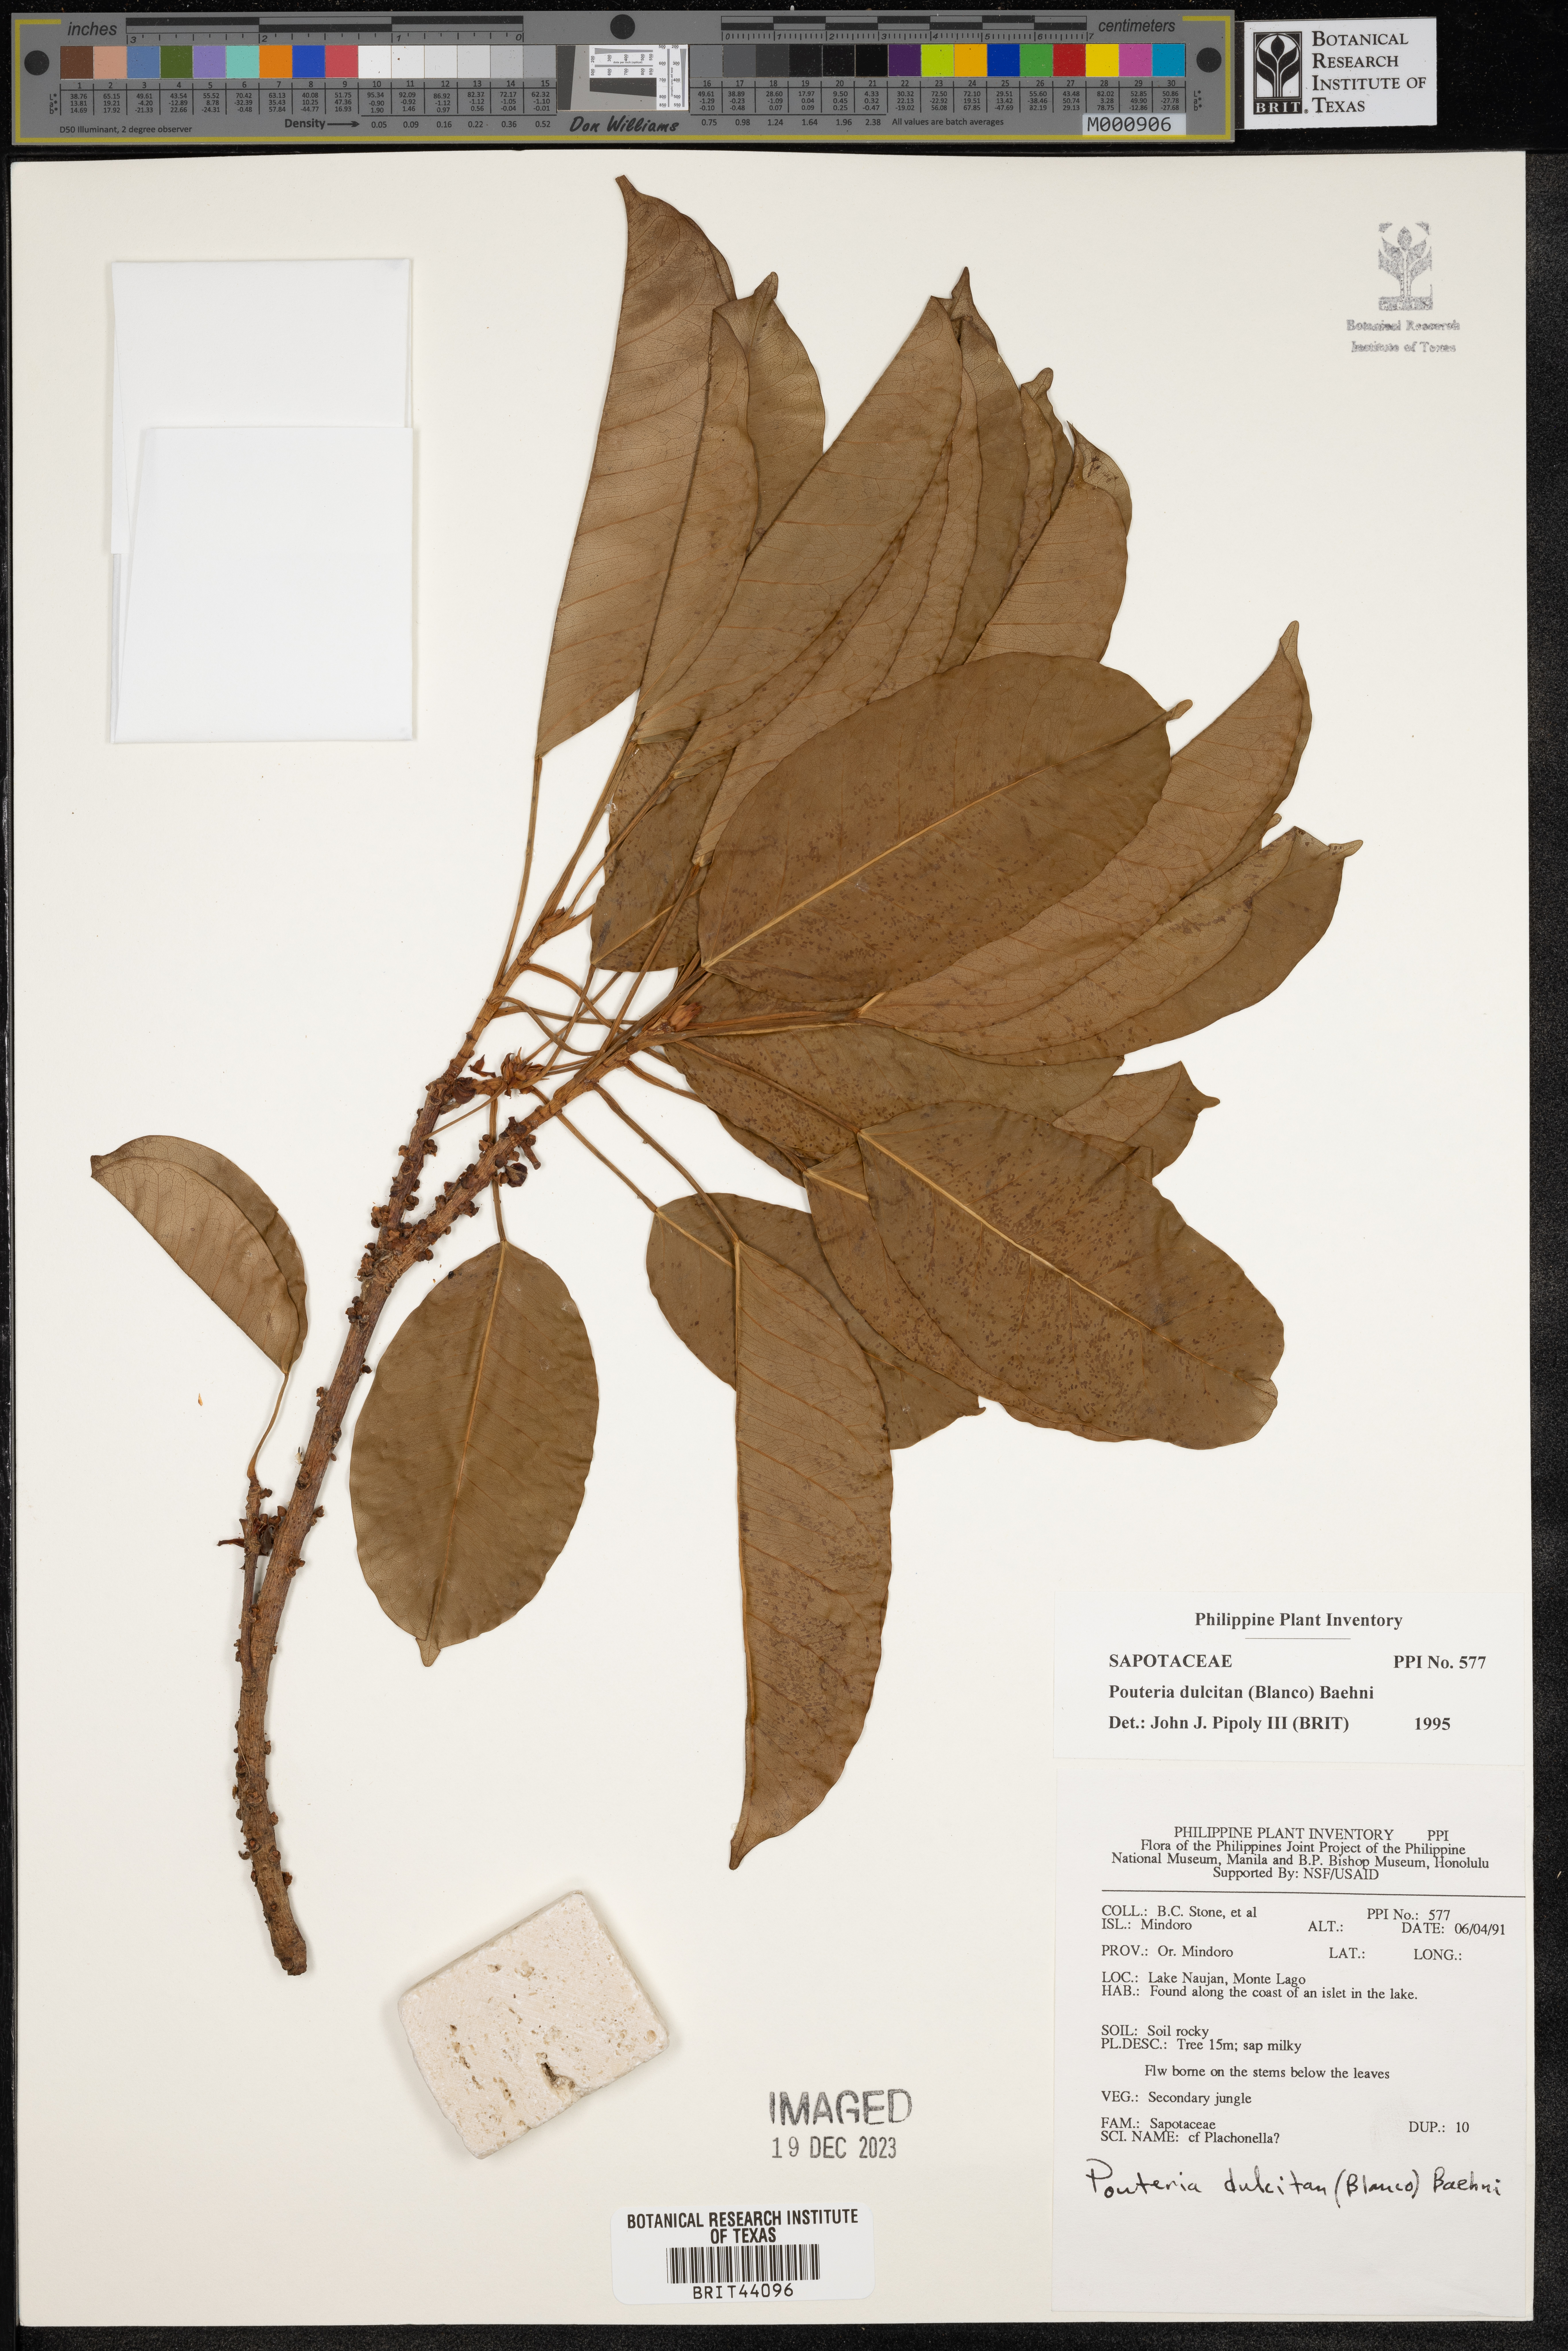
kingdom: Plantae
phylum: Tracheophyta
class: Magnoliopsida
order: Ericales
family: Sapotaceae
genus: Planchonella
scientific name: Planchonella duclitan
